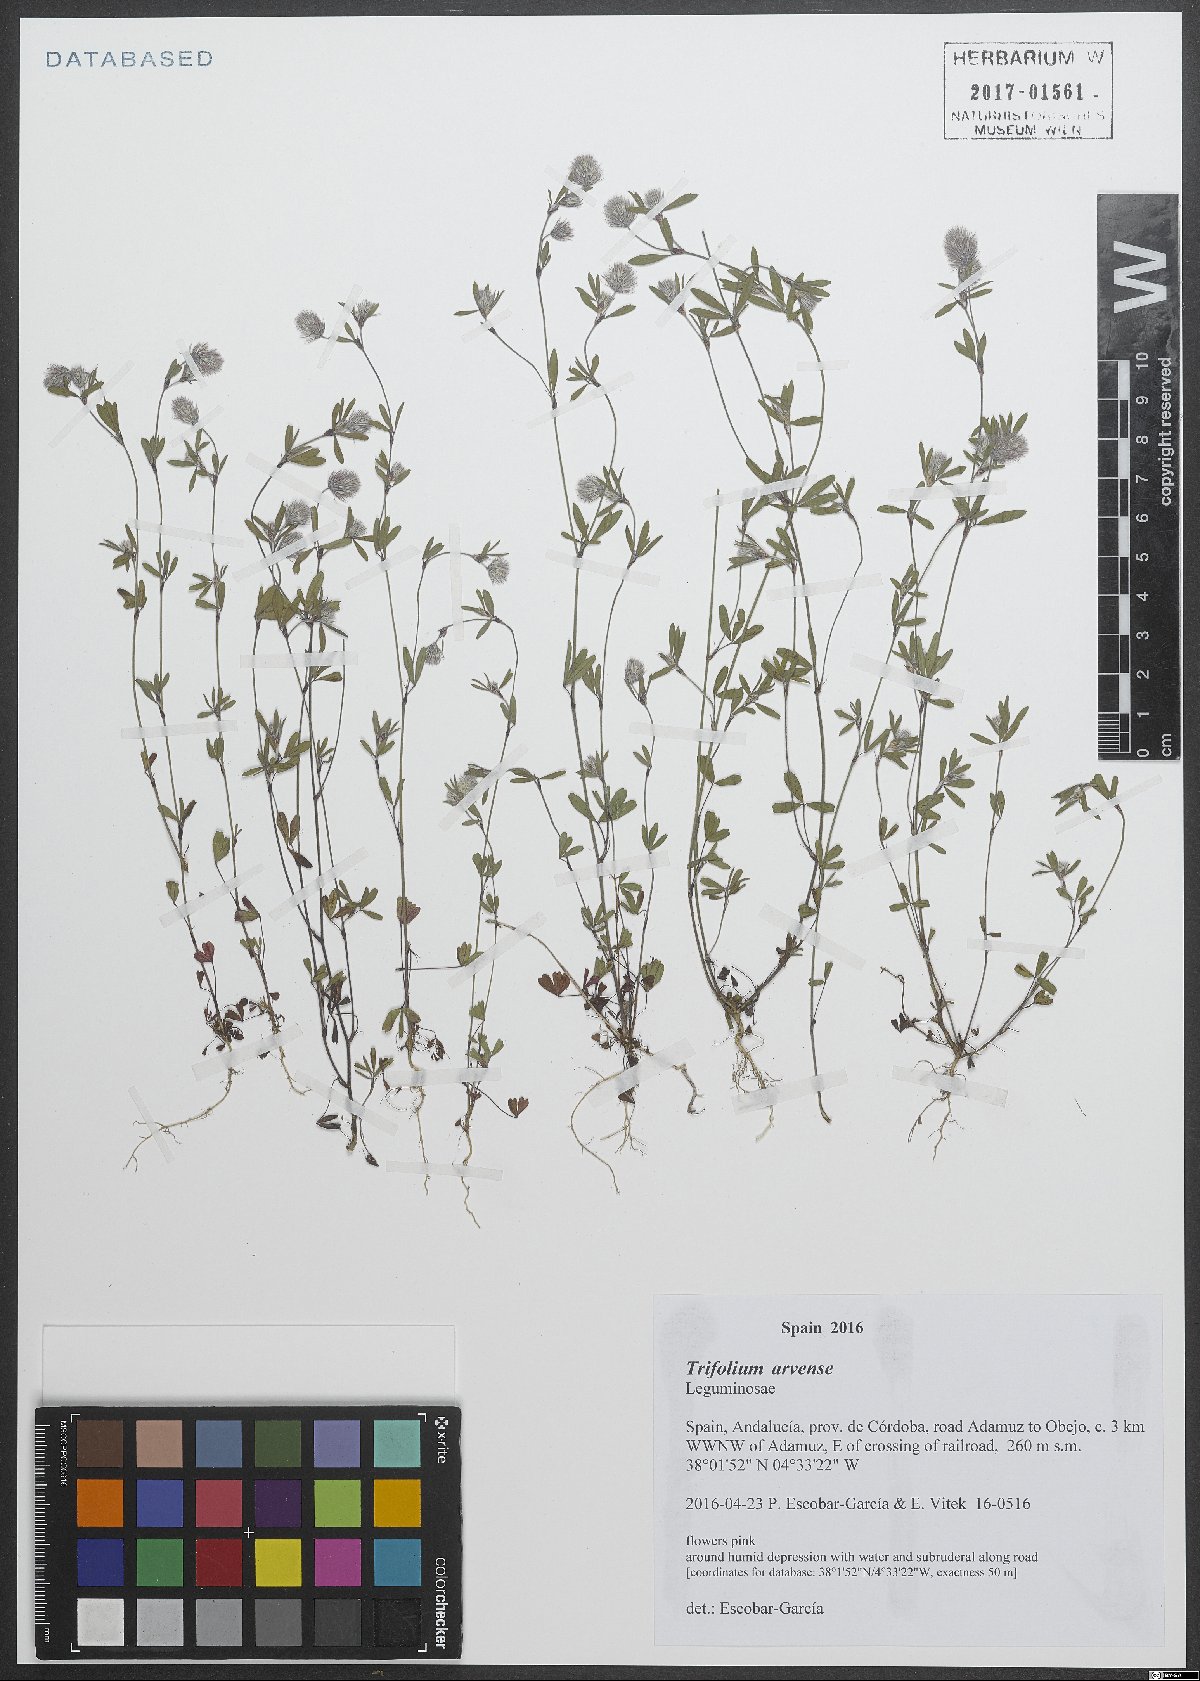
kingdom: Plantae
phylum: Tracheophyta
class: Magnoliopsida
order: Fabales
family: Fabaceae
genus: Trifolium
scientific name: Trifolium arvense
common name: Hare's-foot clover
